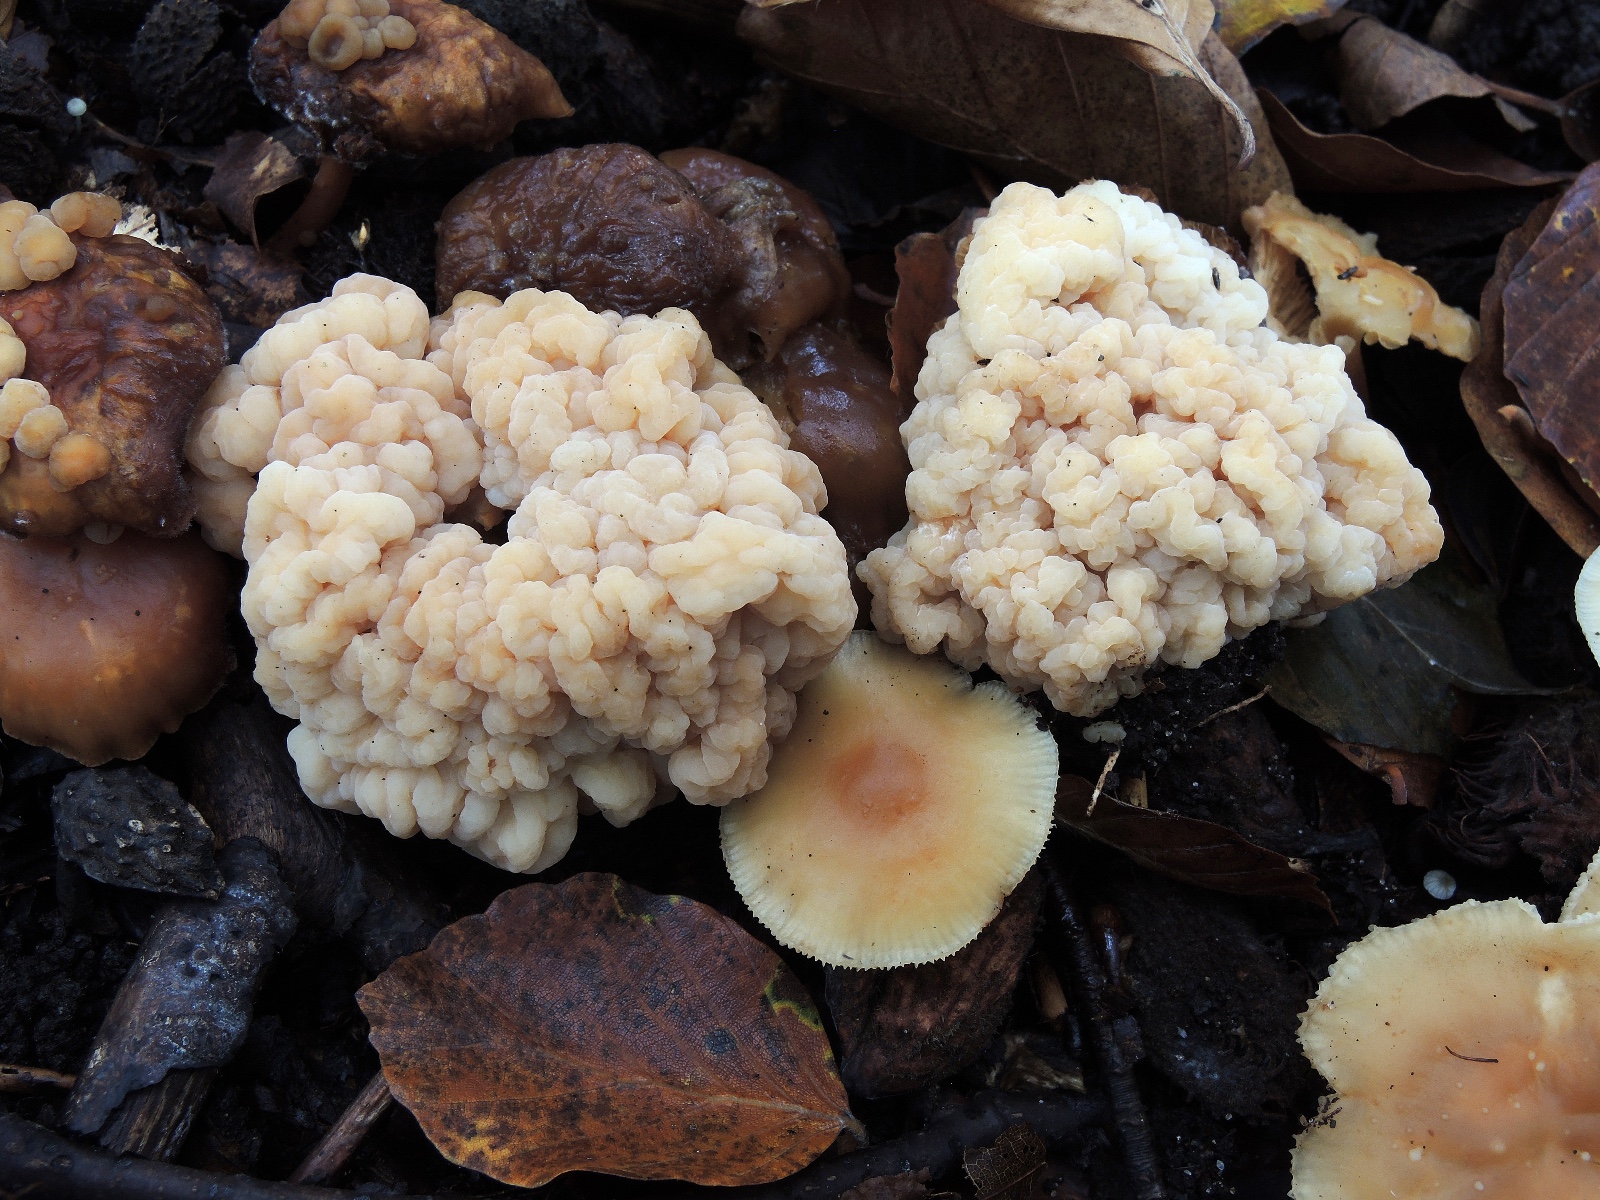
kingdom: Fungi
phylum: Basidiomycota
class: Tremellomycetes
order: Filobasidiales
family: Filobasidiaceae
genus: Syzygospora
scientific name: Syzygospora tumefaciens
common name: fladhatte-snyltehjerne
